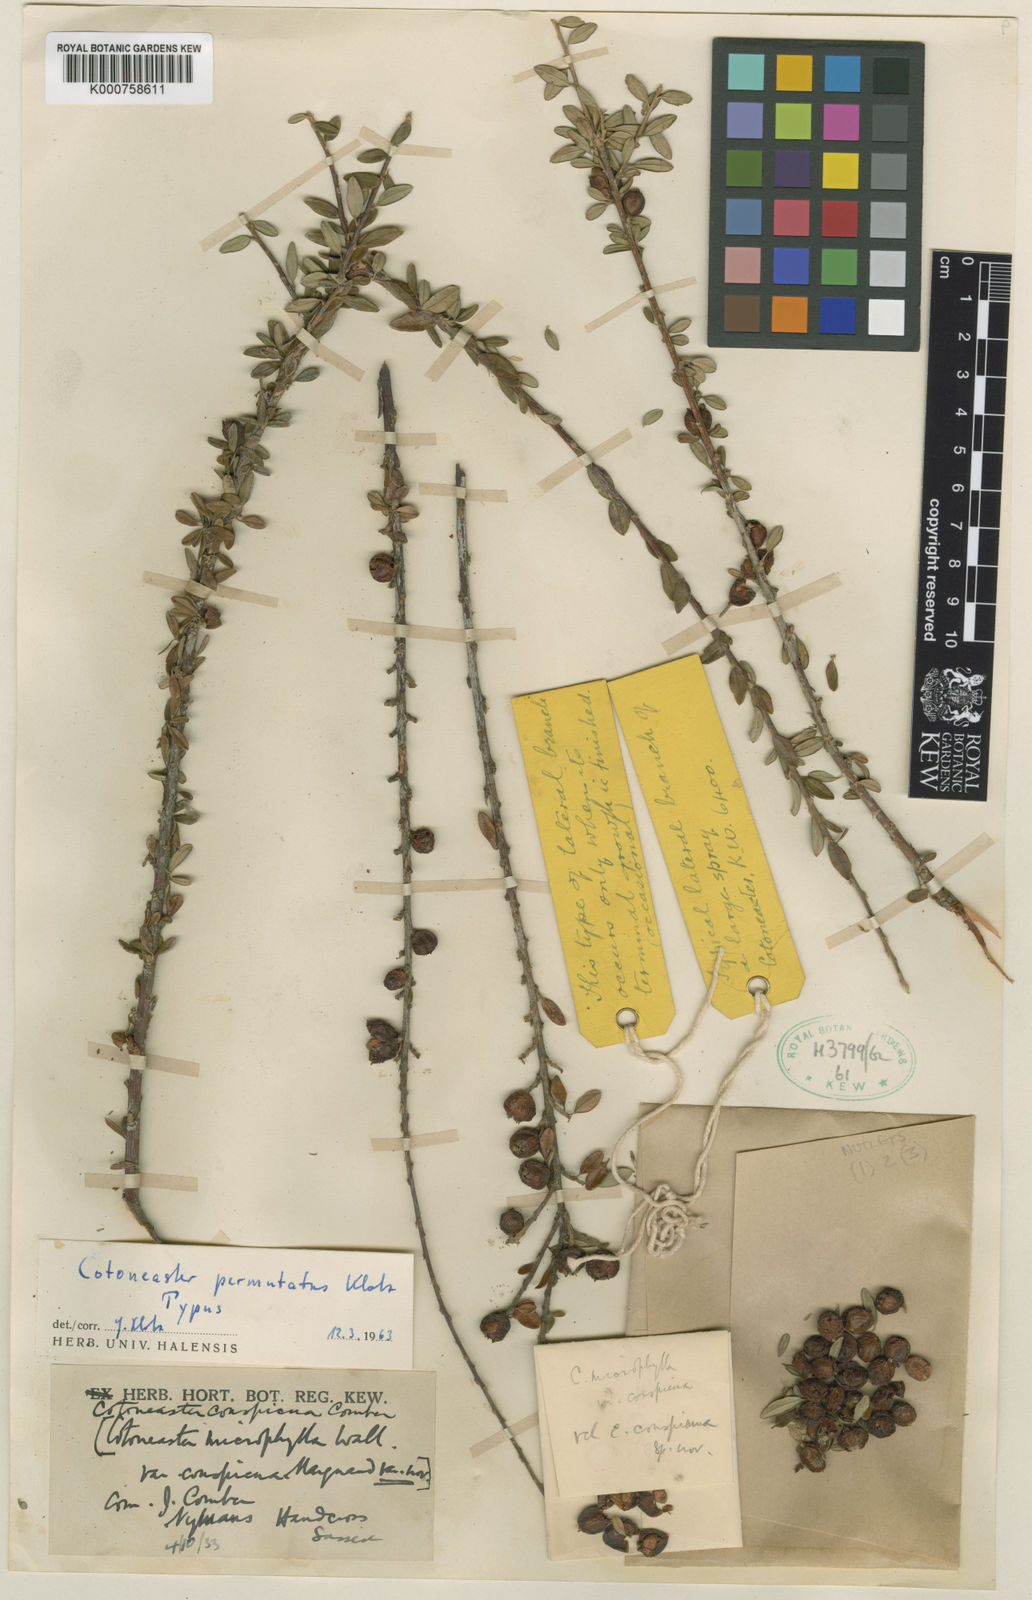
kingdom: Plantae
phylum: Tracheophyta
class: Magnoliopsida
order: Rosales
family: Rosaceae
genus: Cotoneaster
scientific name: Cotoneaster conspicuus
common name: Tibetan cotoneaster
